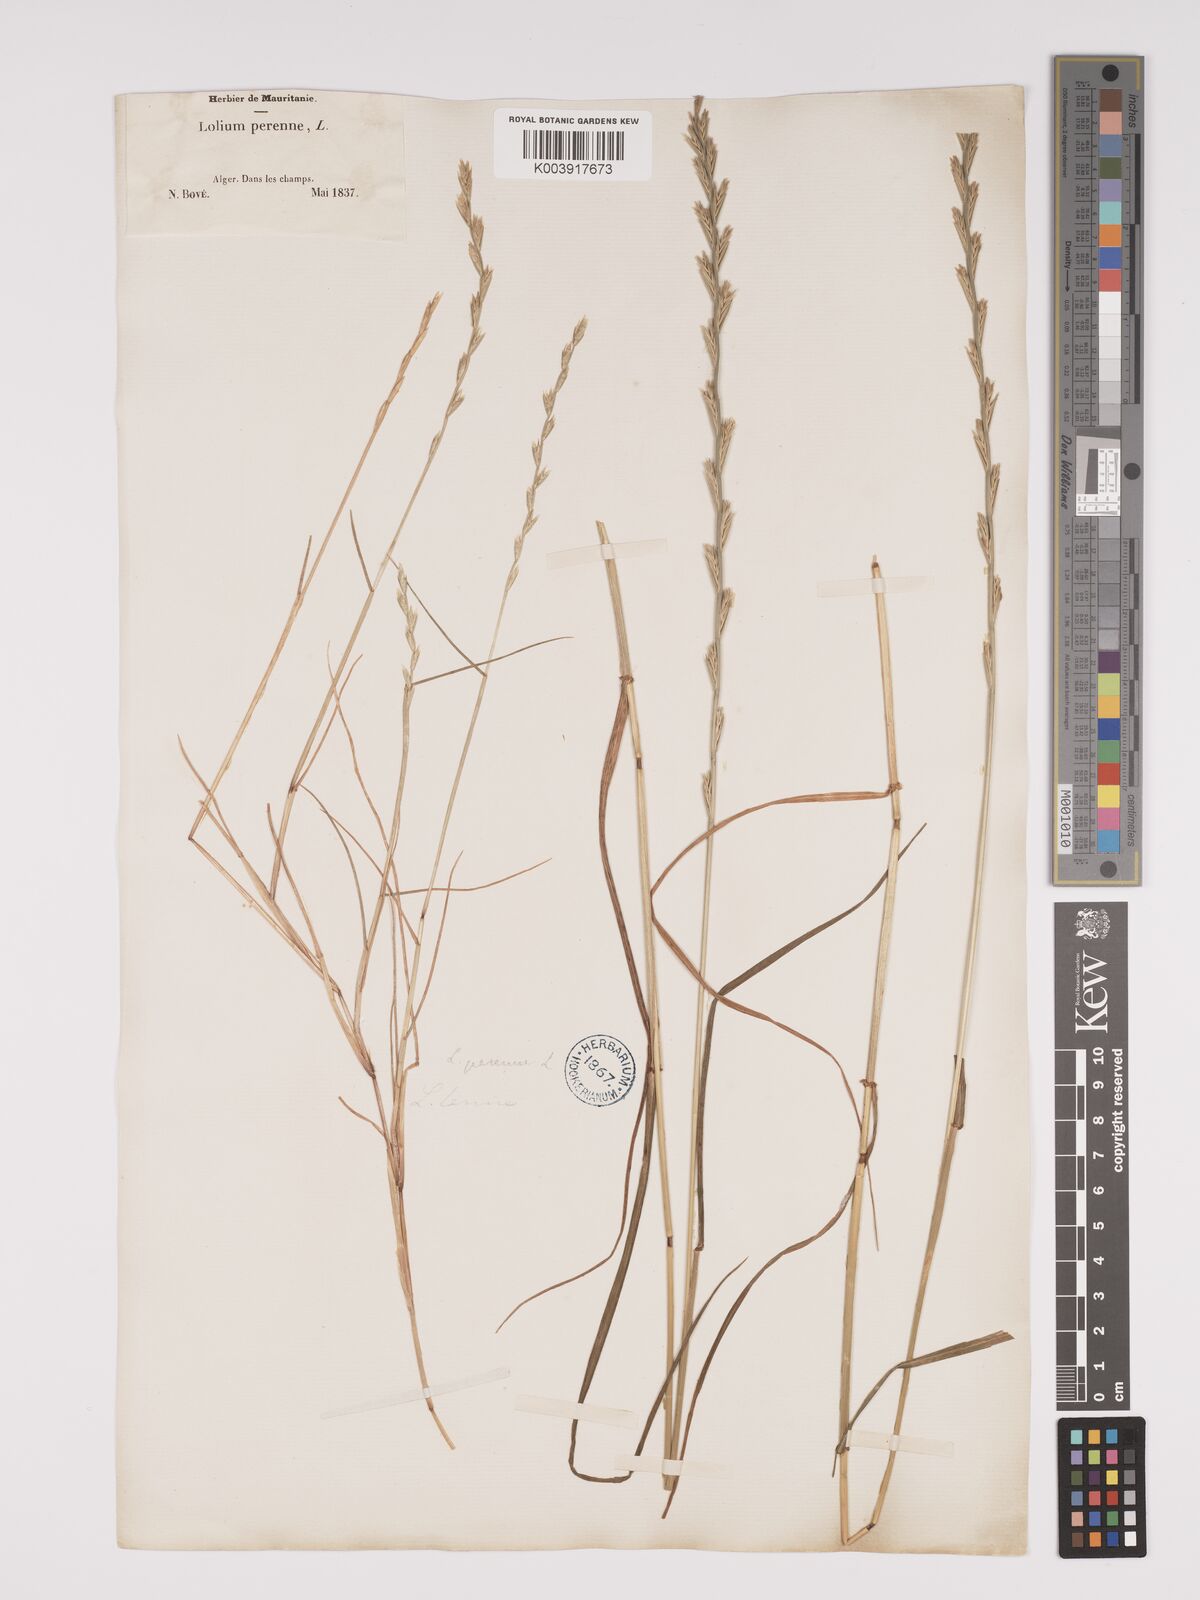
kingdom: Plantae
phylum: Tracheophyta
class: Liliopsida
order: Poales
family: Poaceae
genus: Lolium
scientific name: Lolium rigidum
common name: Wimmera ryegrass
